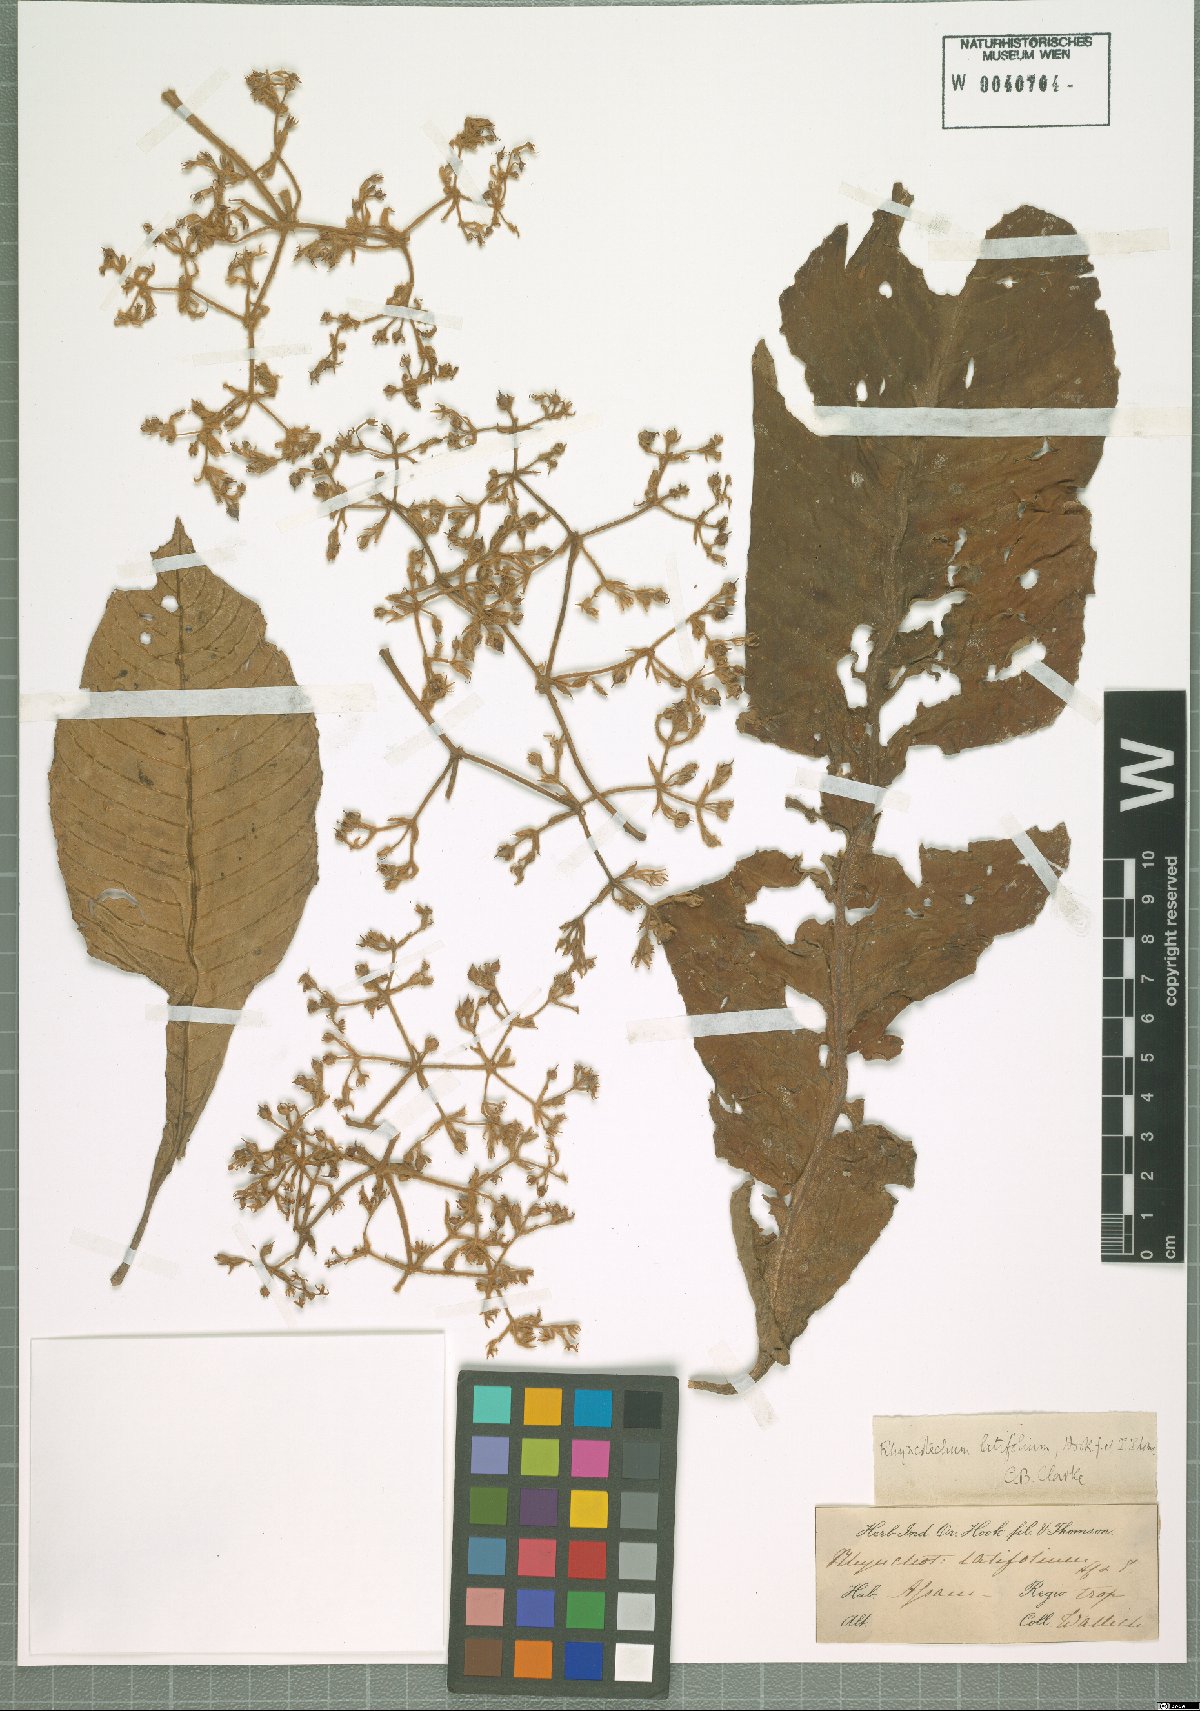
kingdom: Plantae
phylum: Tracheophyta
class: Magnoliopsida
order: Lamiales
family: Gesneriaceae
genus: Rhynchotechum
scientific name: Rhynchotechum
